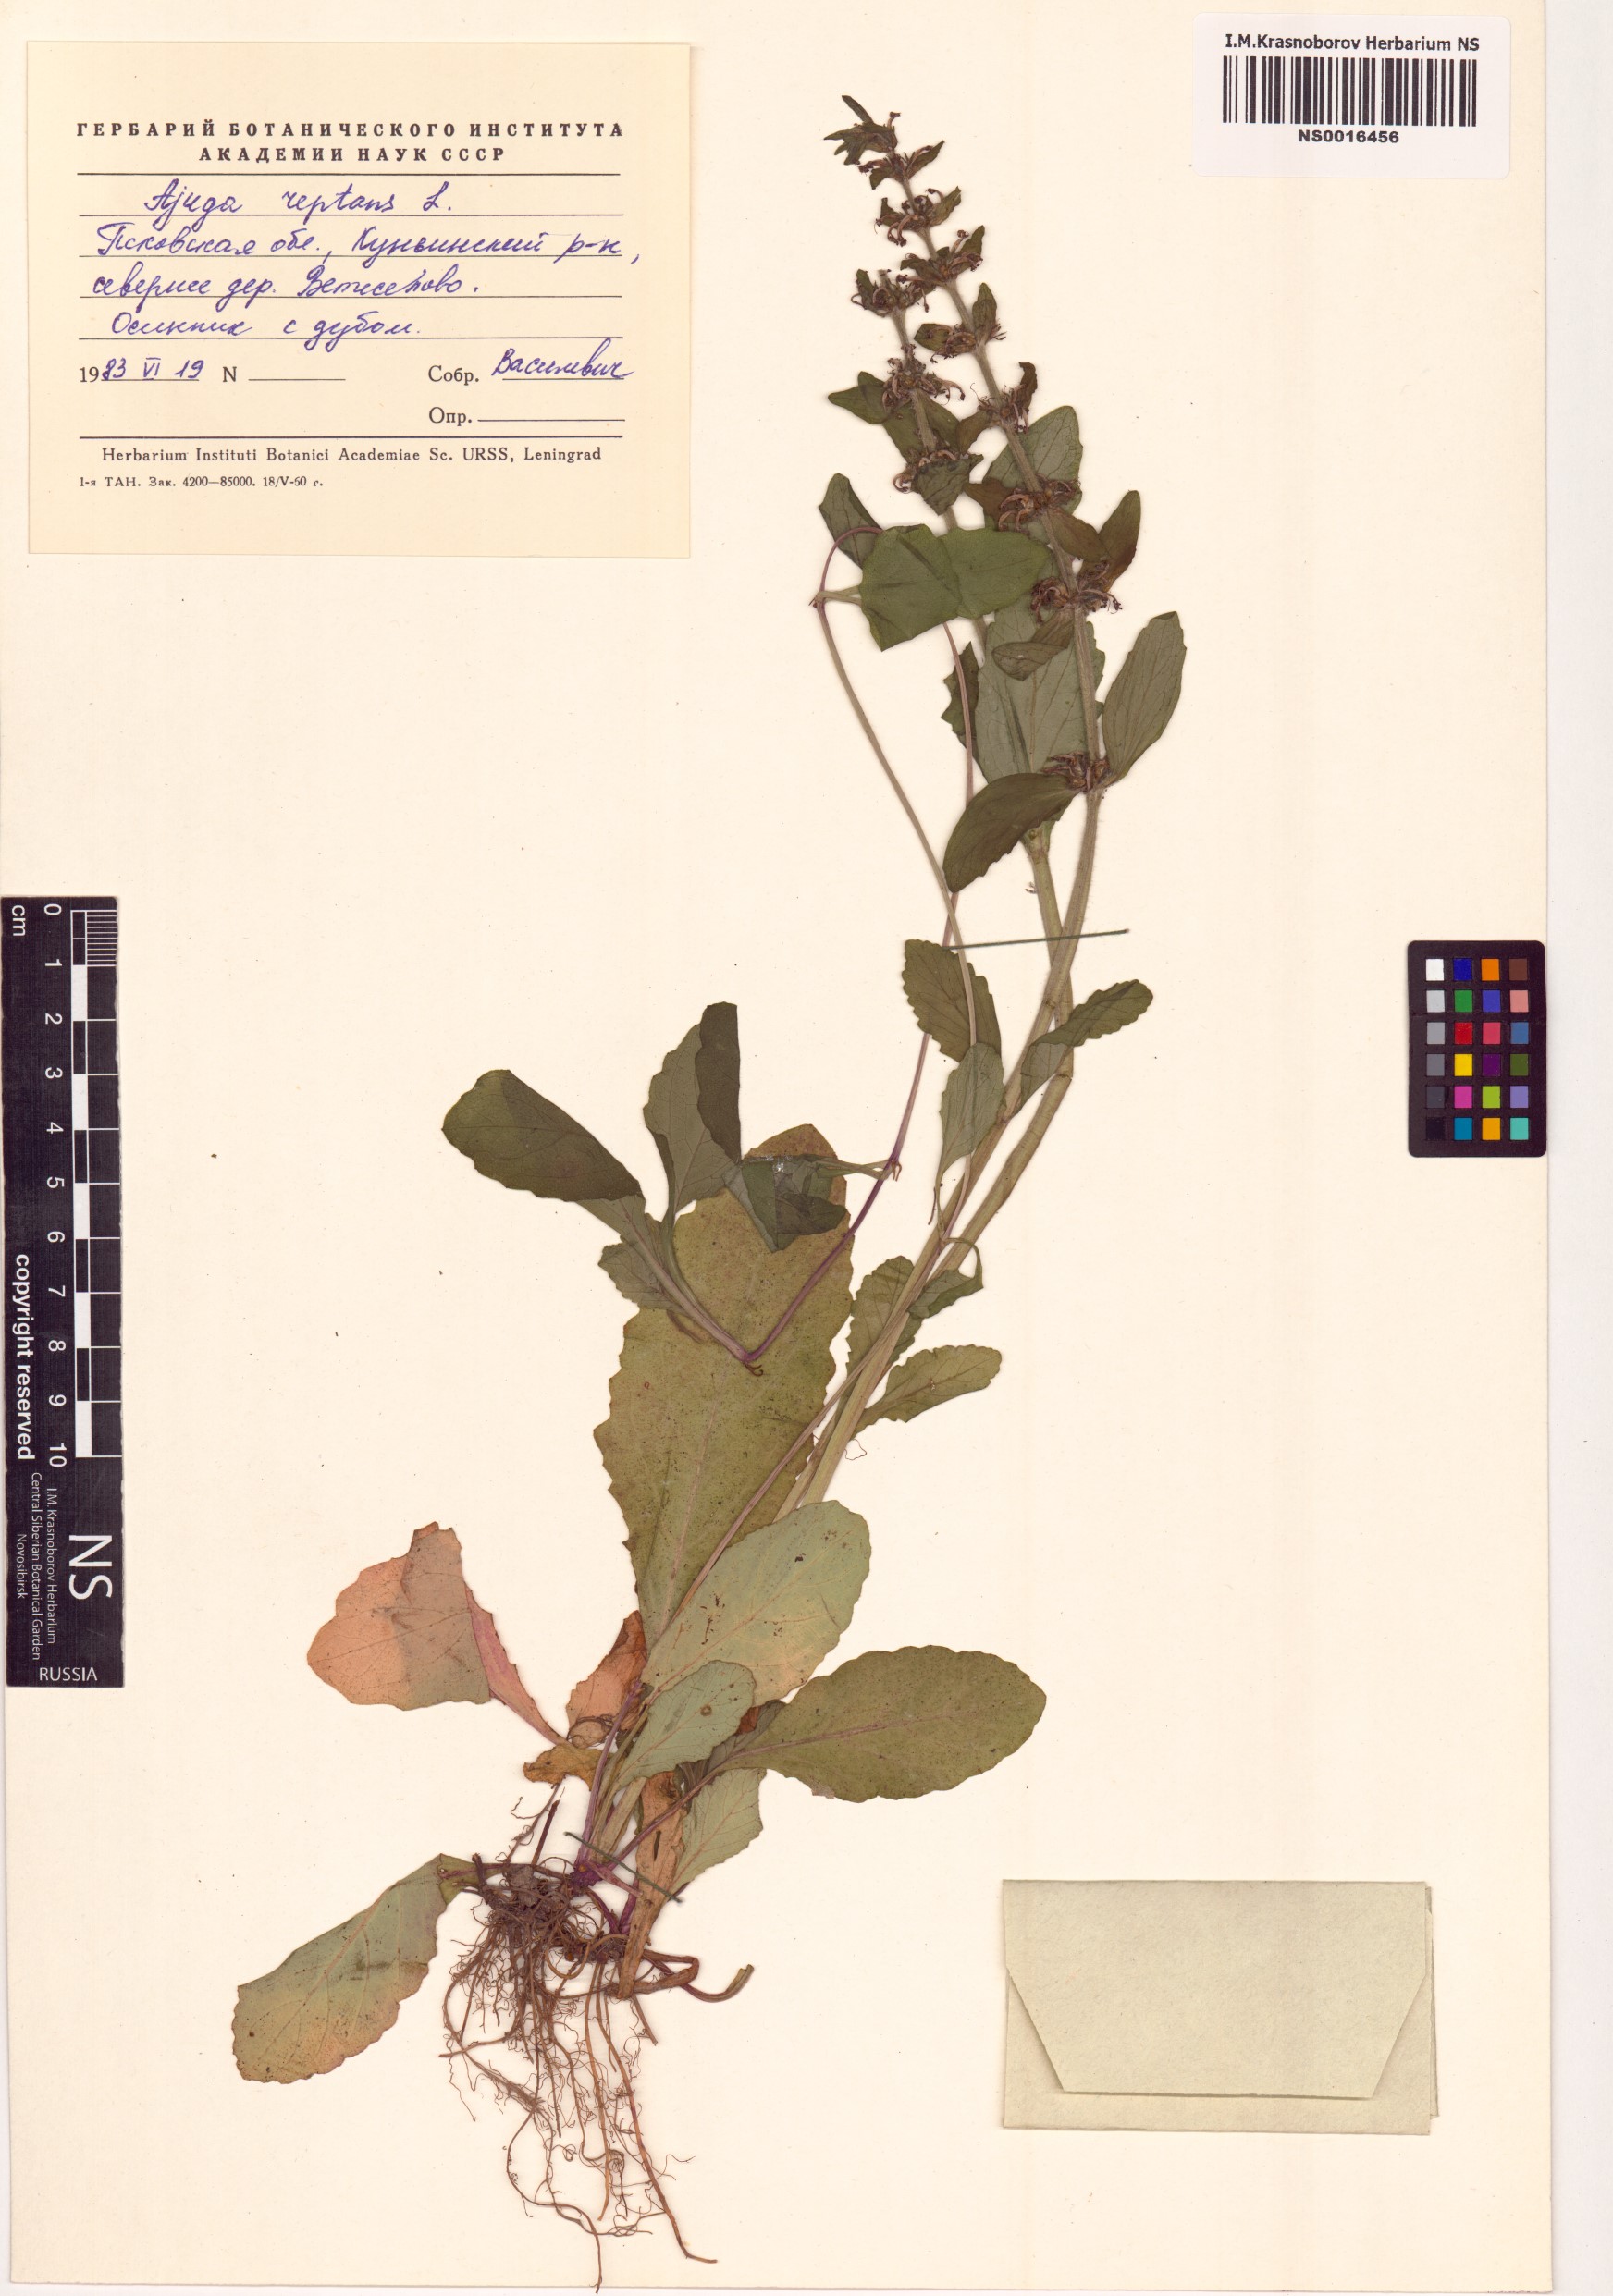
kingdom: Plantae
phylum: Tracheophyta
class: Magnoliopsida
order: Lamiales
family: Lamiaceae
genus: Ajuga
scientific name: Ajuga reptans
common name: Bugle
